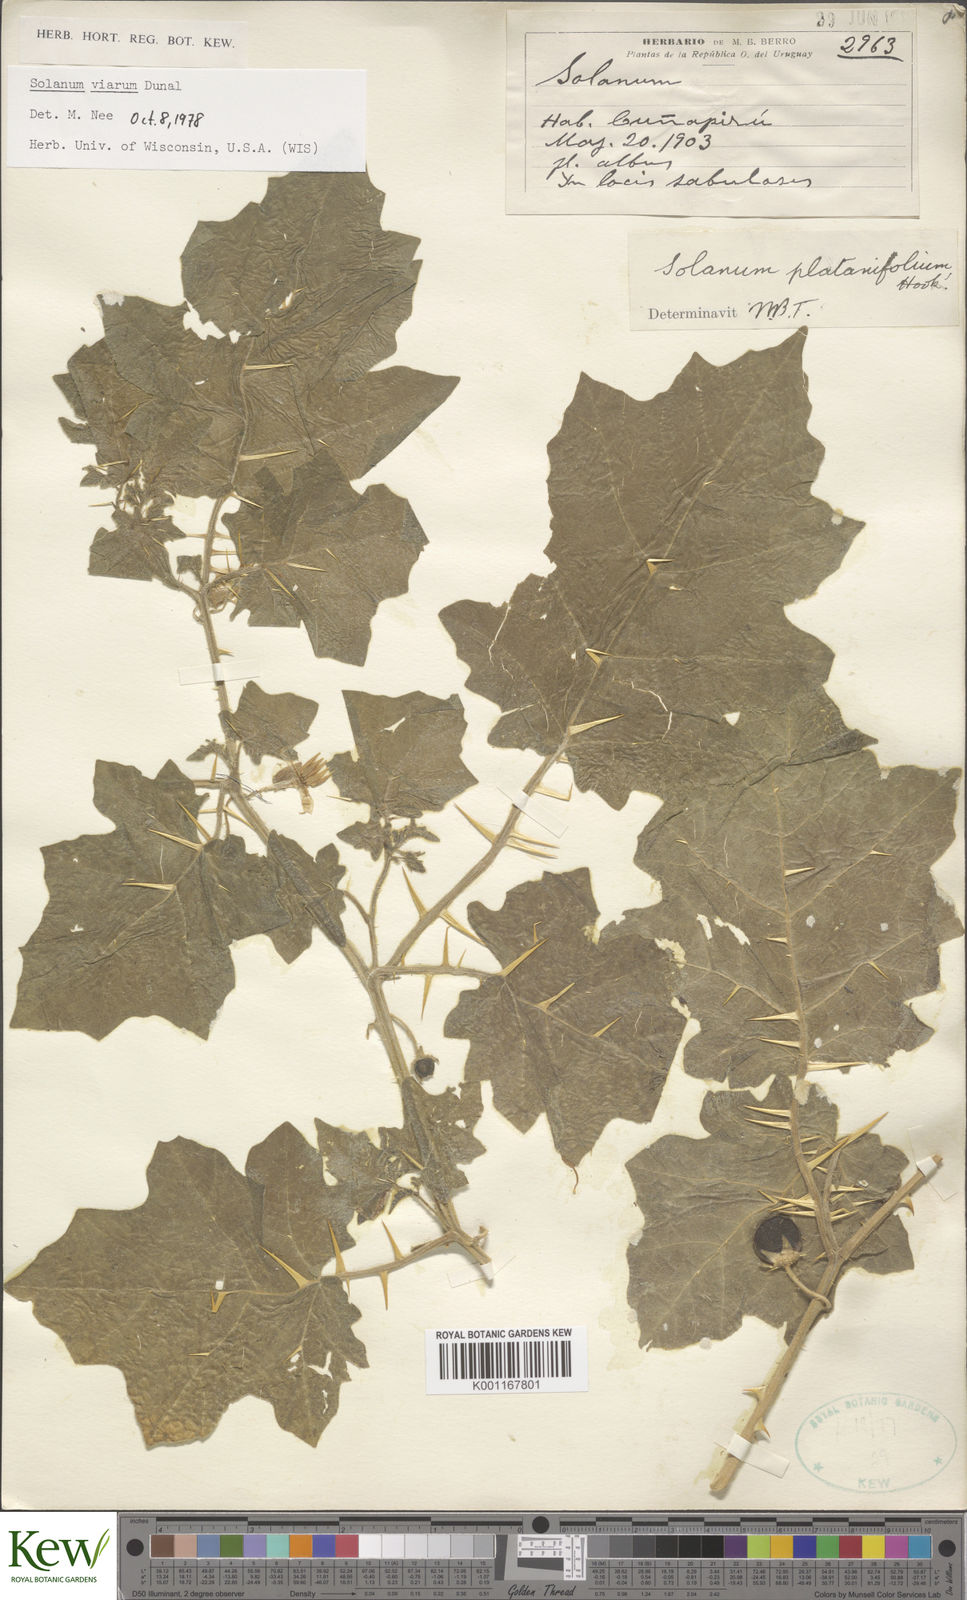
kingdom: Plantae
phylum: Tracheophyta
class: Magnoliopsida
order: Solanales
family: Solanaceae
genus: Solanum
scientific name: Solanum viarum
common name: Tropical soda apple
